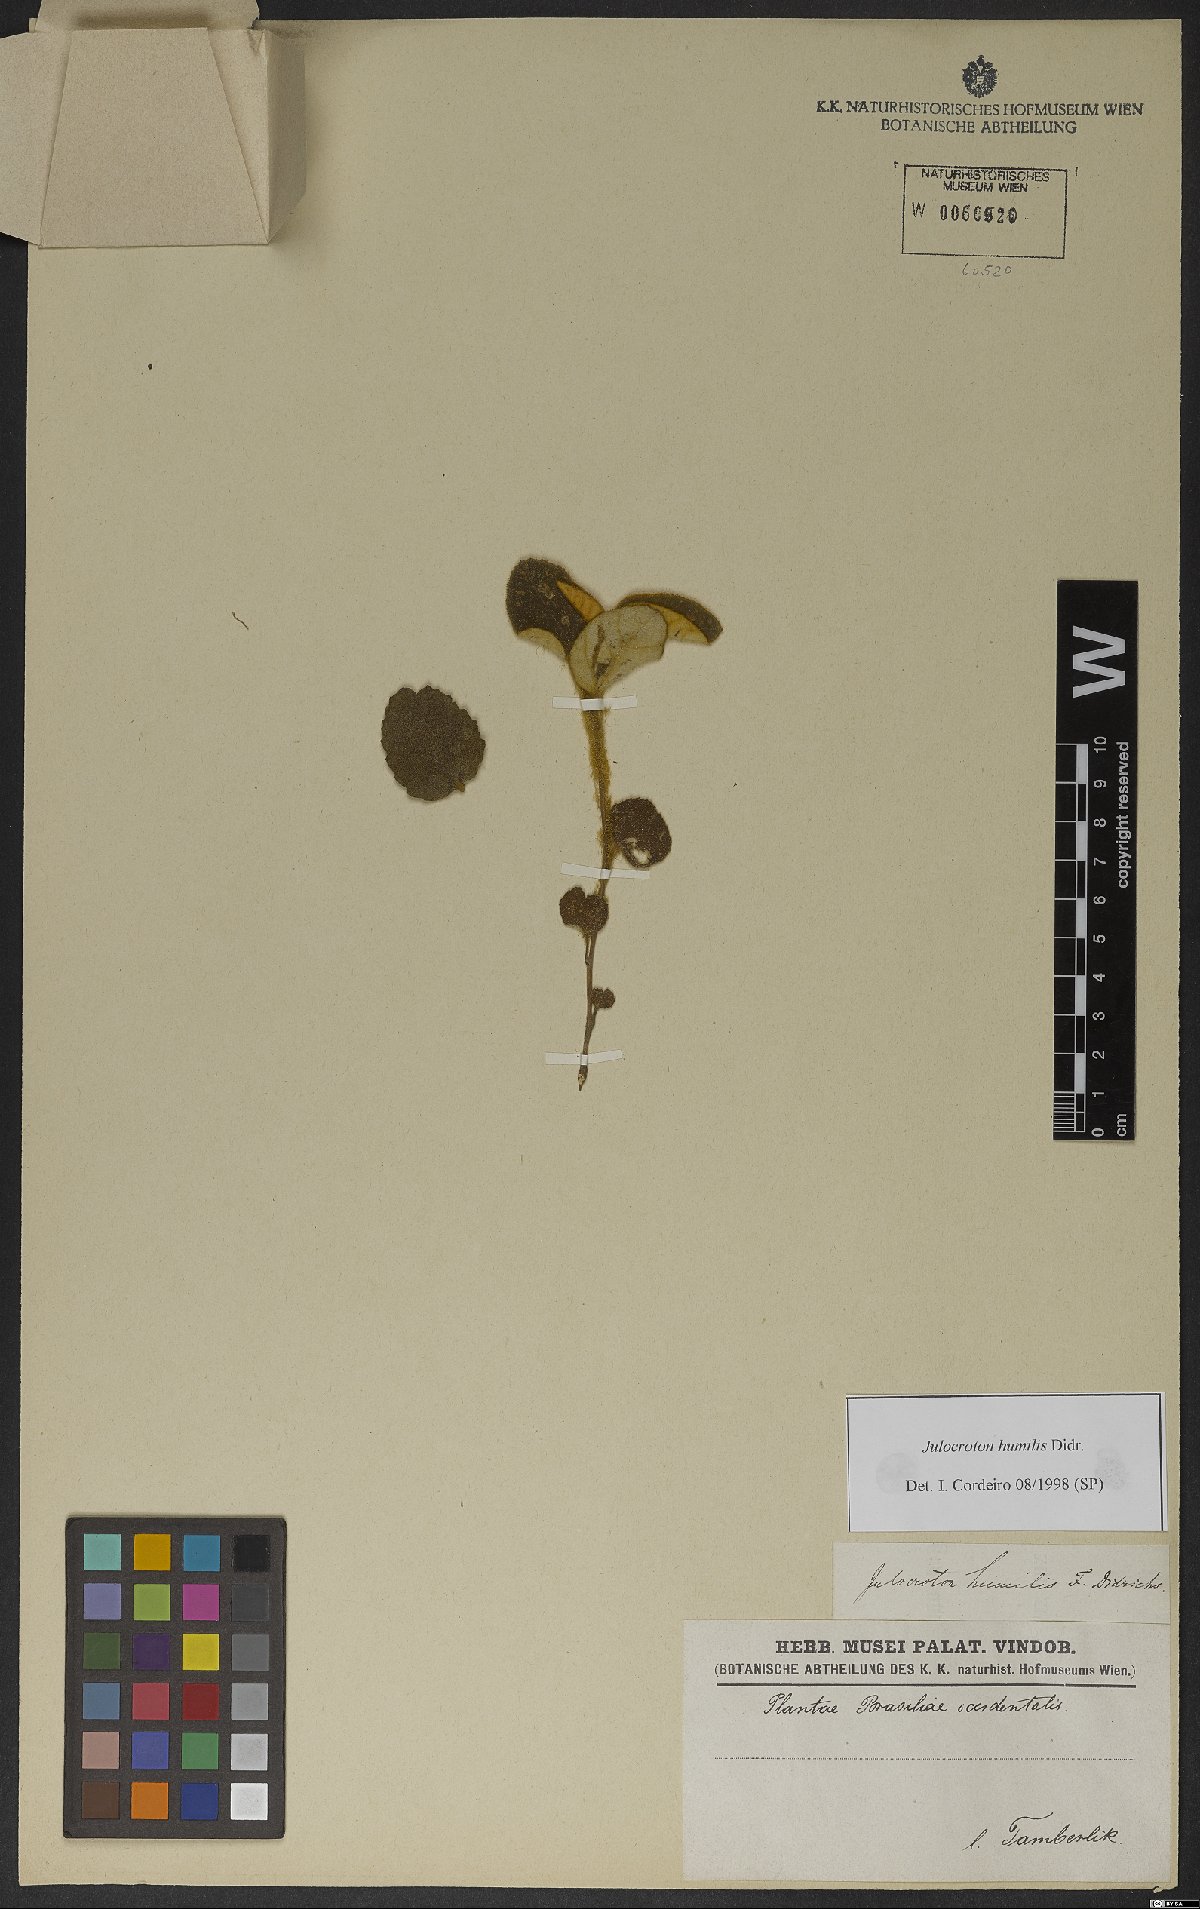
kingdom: Plantae
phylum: Tracheophyta
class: Magnoliopsida
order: Malpighiales
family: Euphorbiaceae
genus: Croton
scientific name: Croton solanaceus
